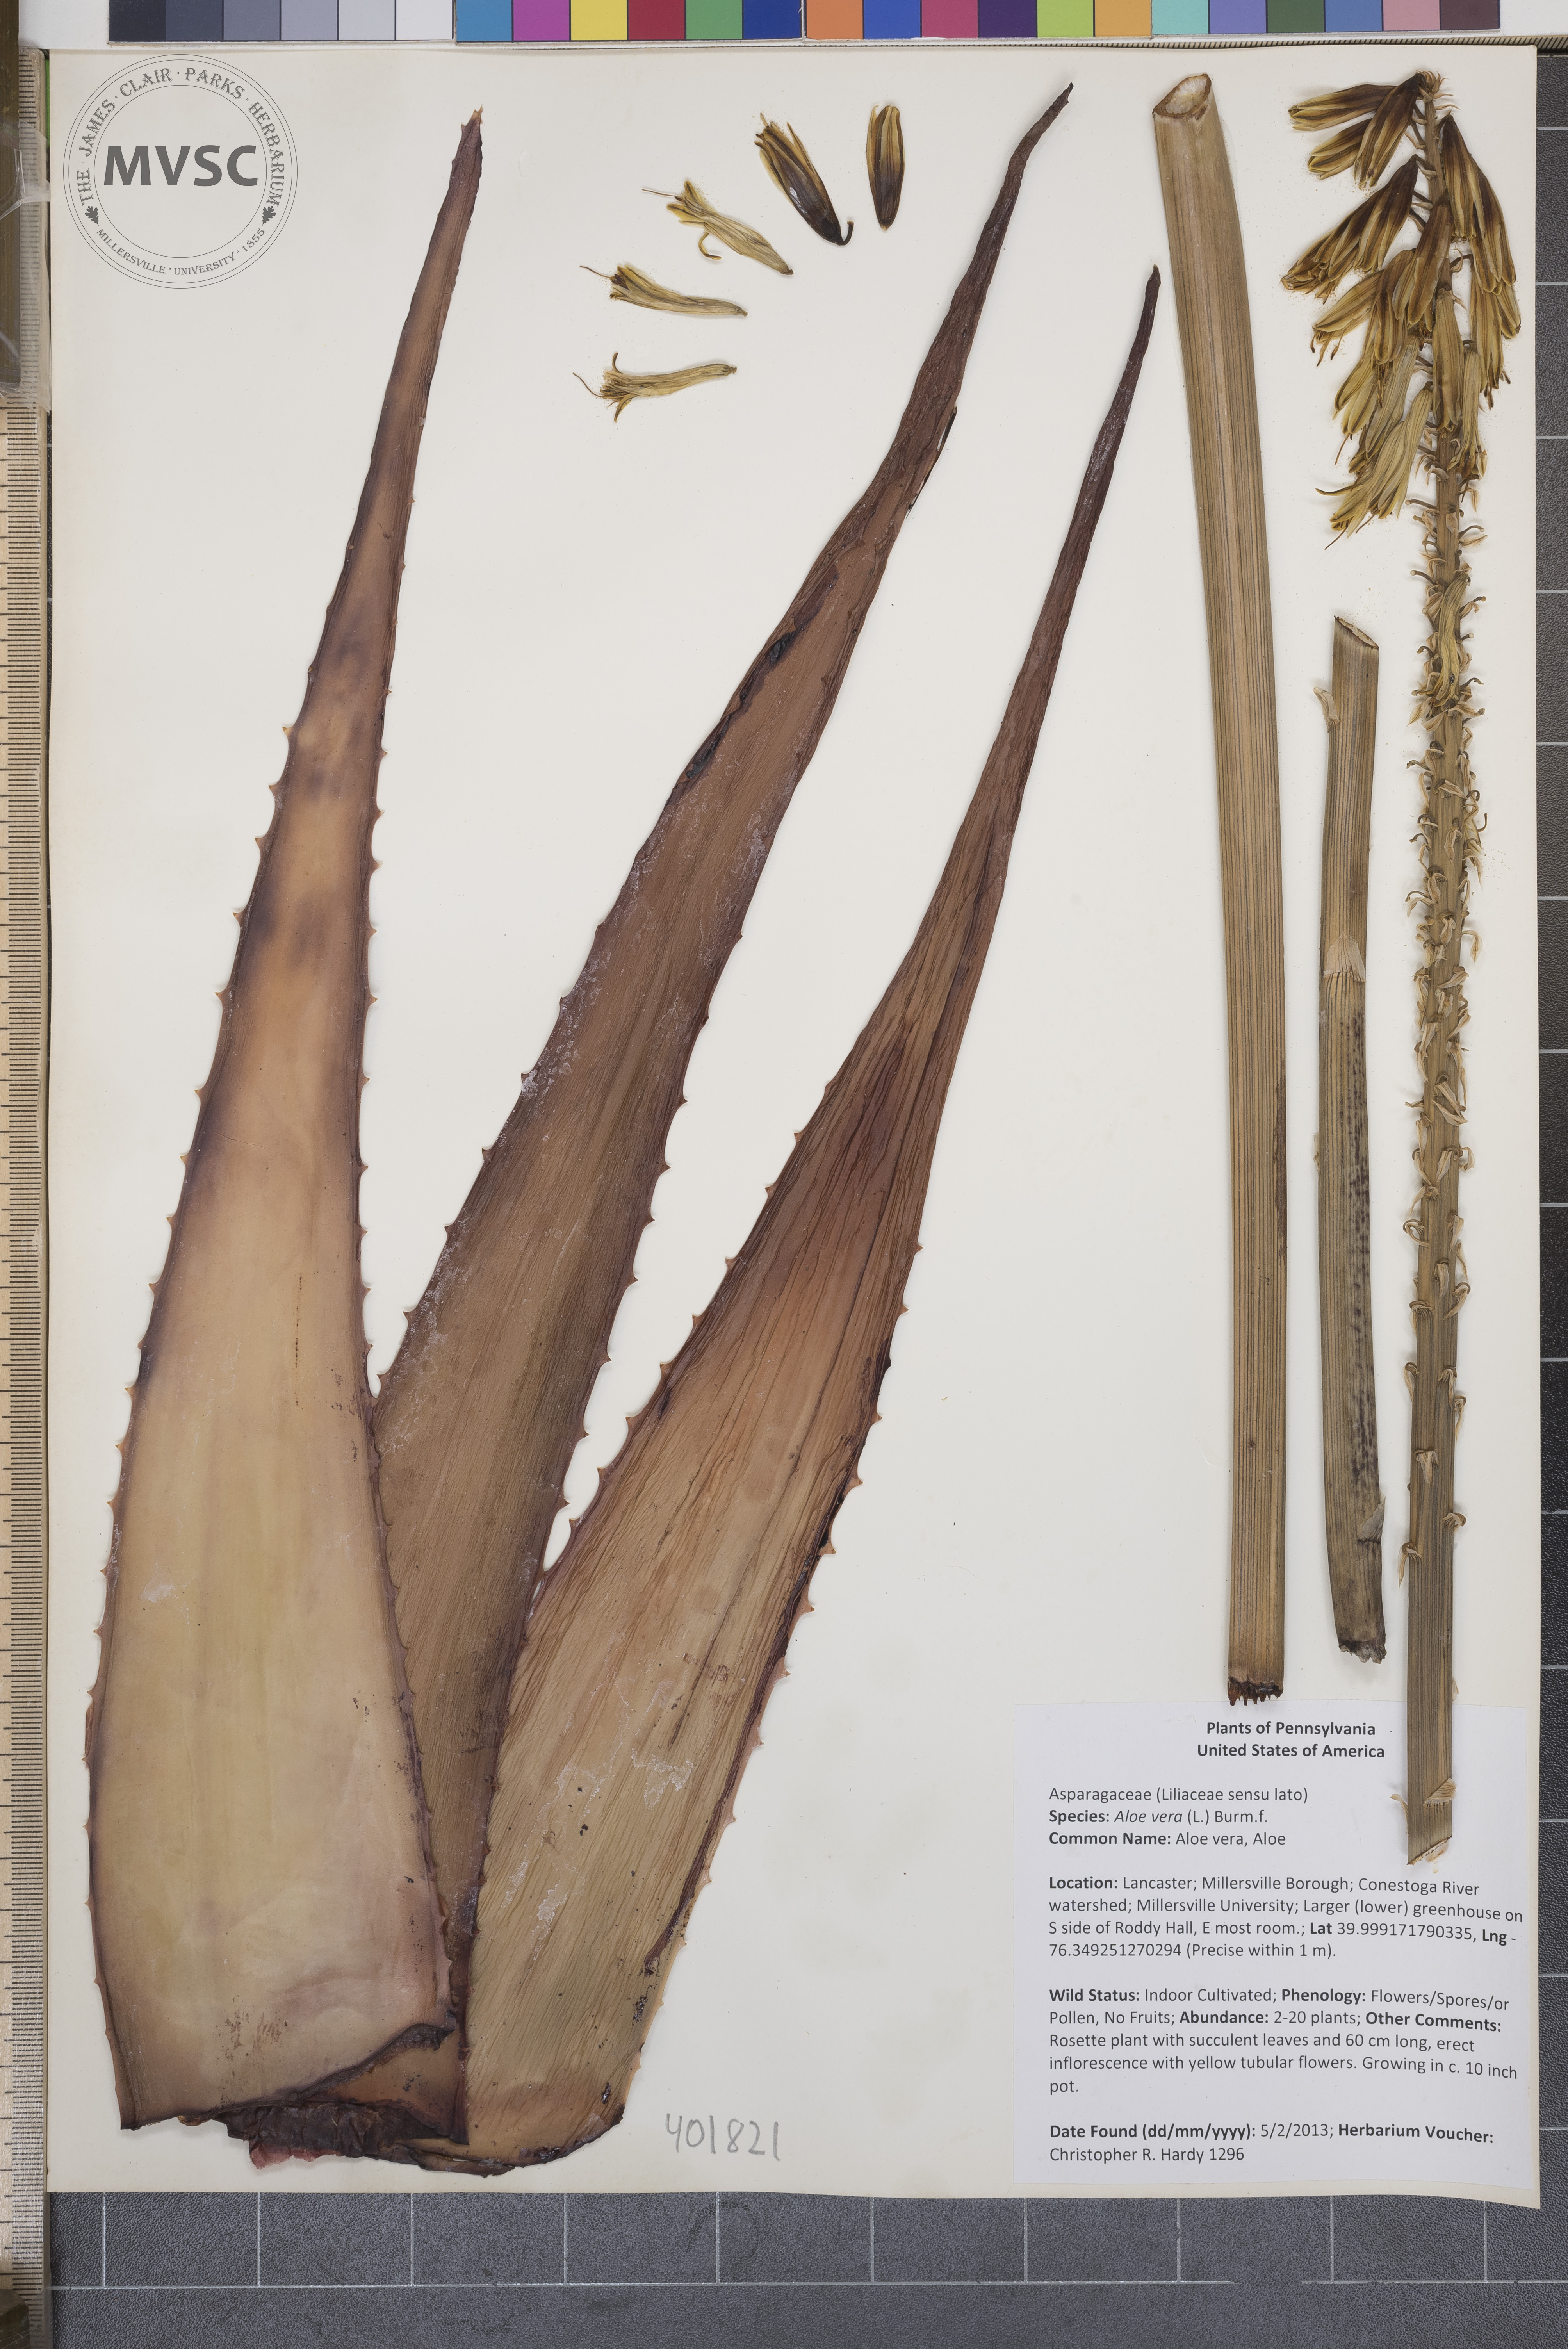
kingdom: Plantae
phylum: Tracheophyta
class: Liliopsida
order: Asparagales
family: Asphodelaceae
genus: Aloe
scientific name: Aloe vera
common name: Aloe vera
